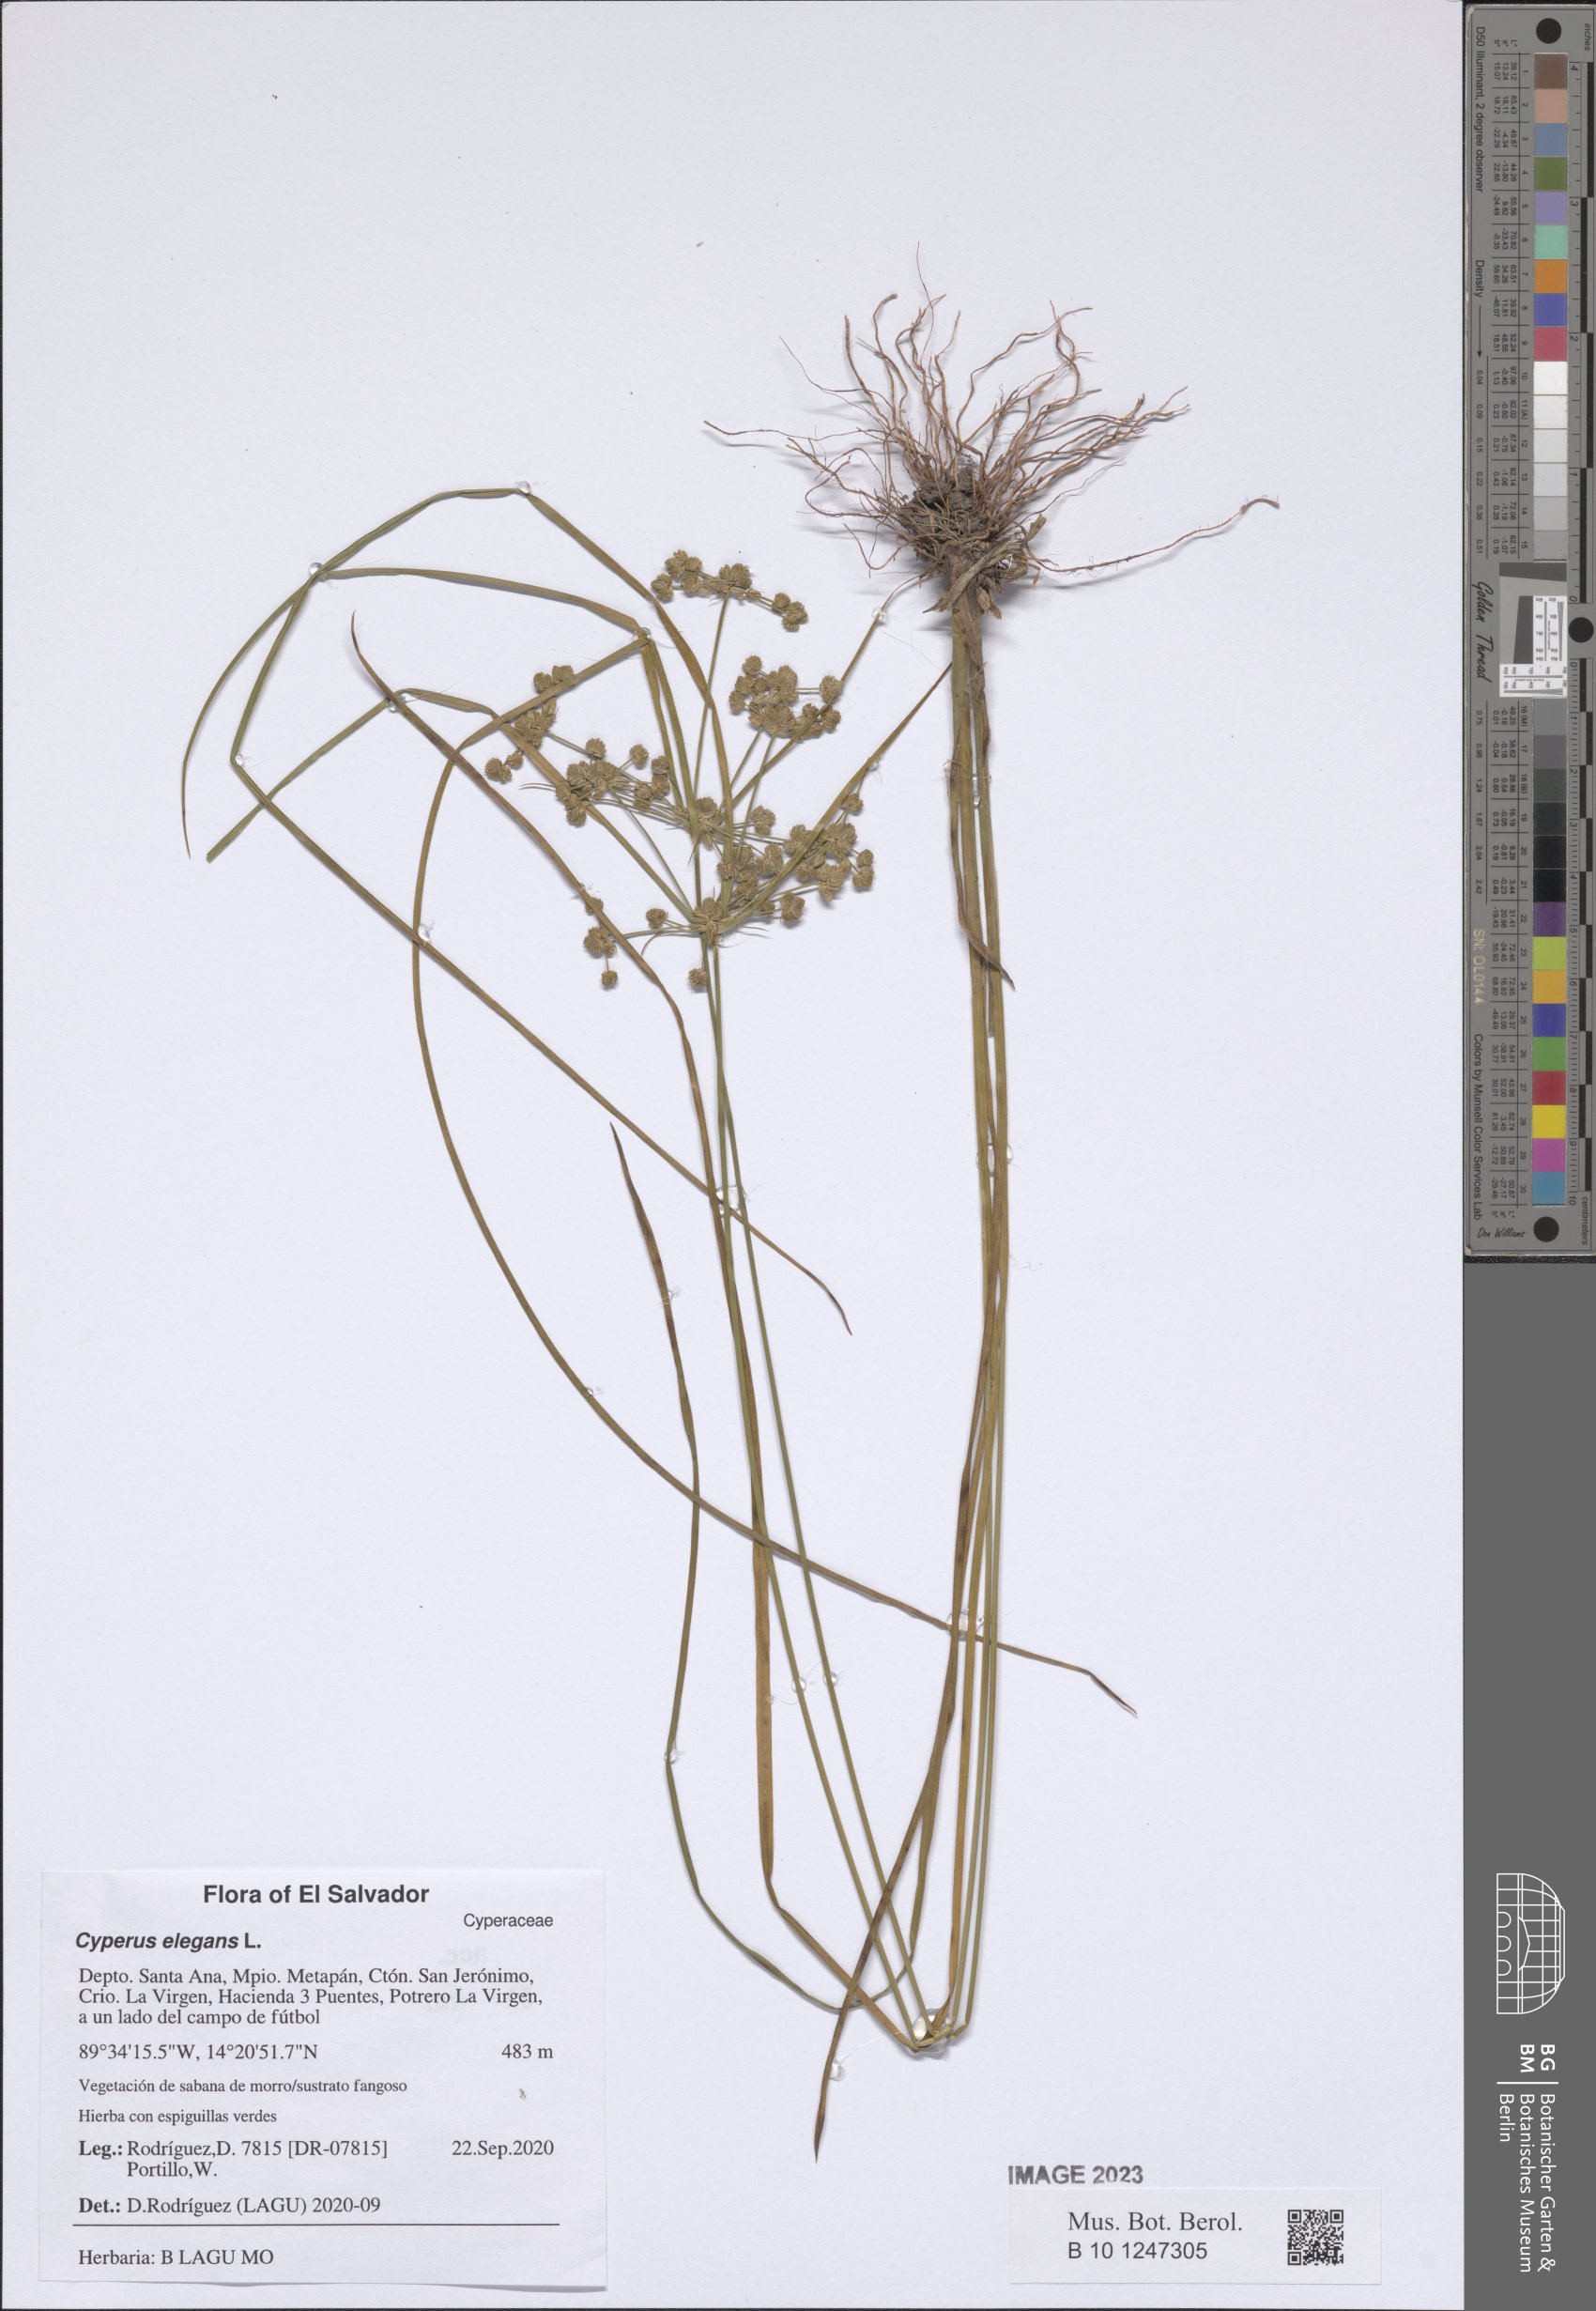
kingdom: Plantae
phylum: Tracheophyta
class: Liliopsida
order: Poales
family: Cyperaceae
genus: Cyperus
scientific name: Cyperus elegans
